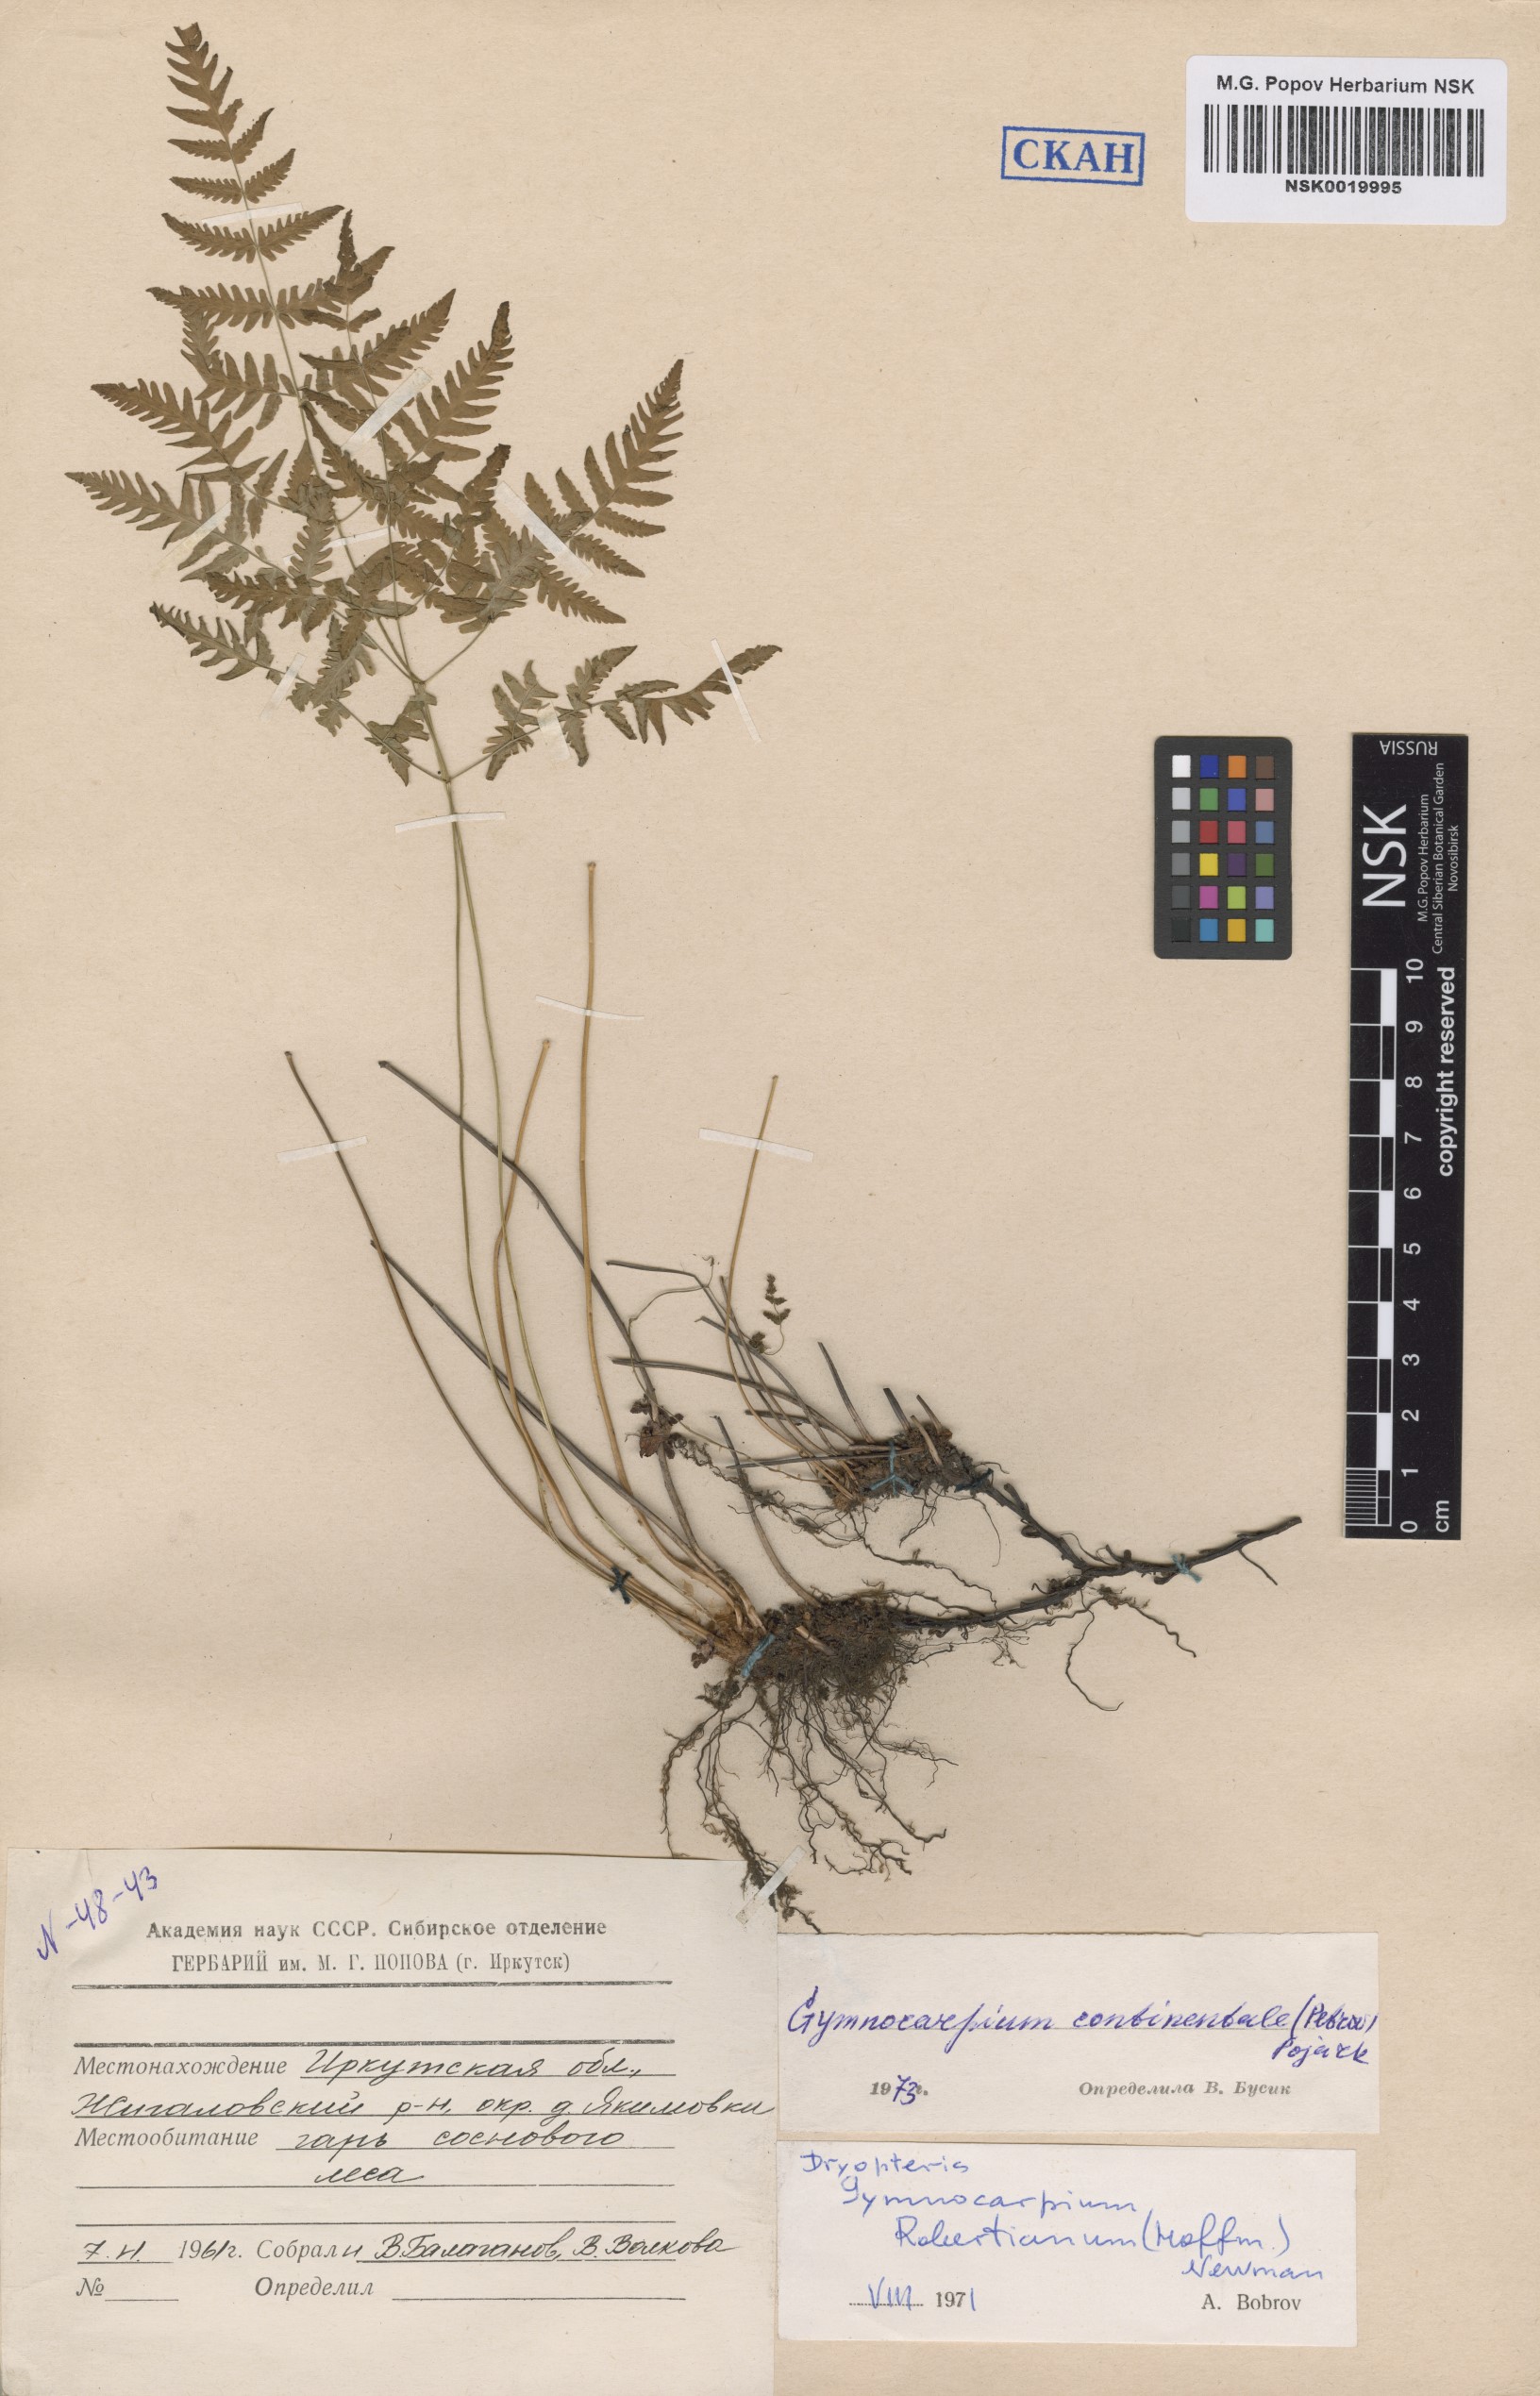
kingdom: Plantae
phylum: Tracheophyta
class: Polypodiopsida
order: Polypodiales
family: Cystopteridaceae
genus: Gymnocarpium
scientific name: Gymnocarpium continentale
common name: Asian oak fern
